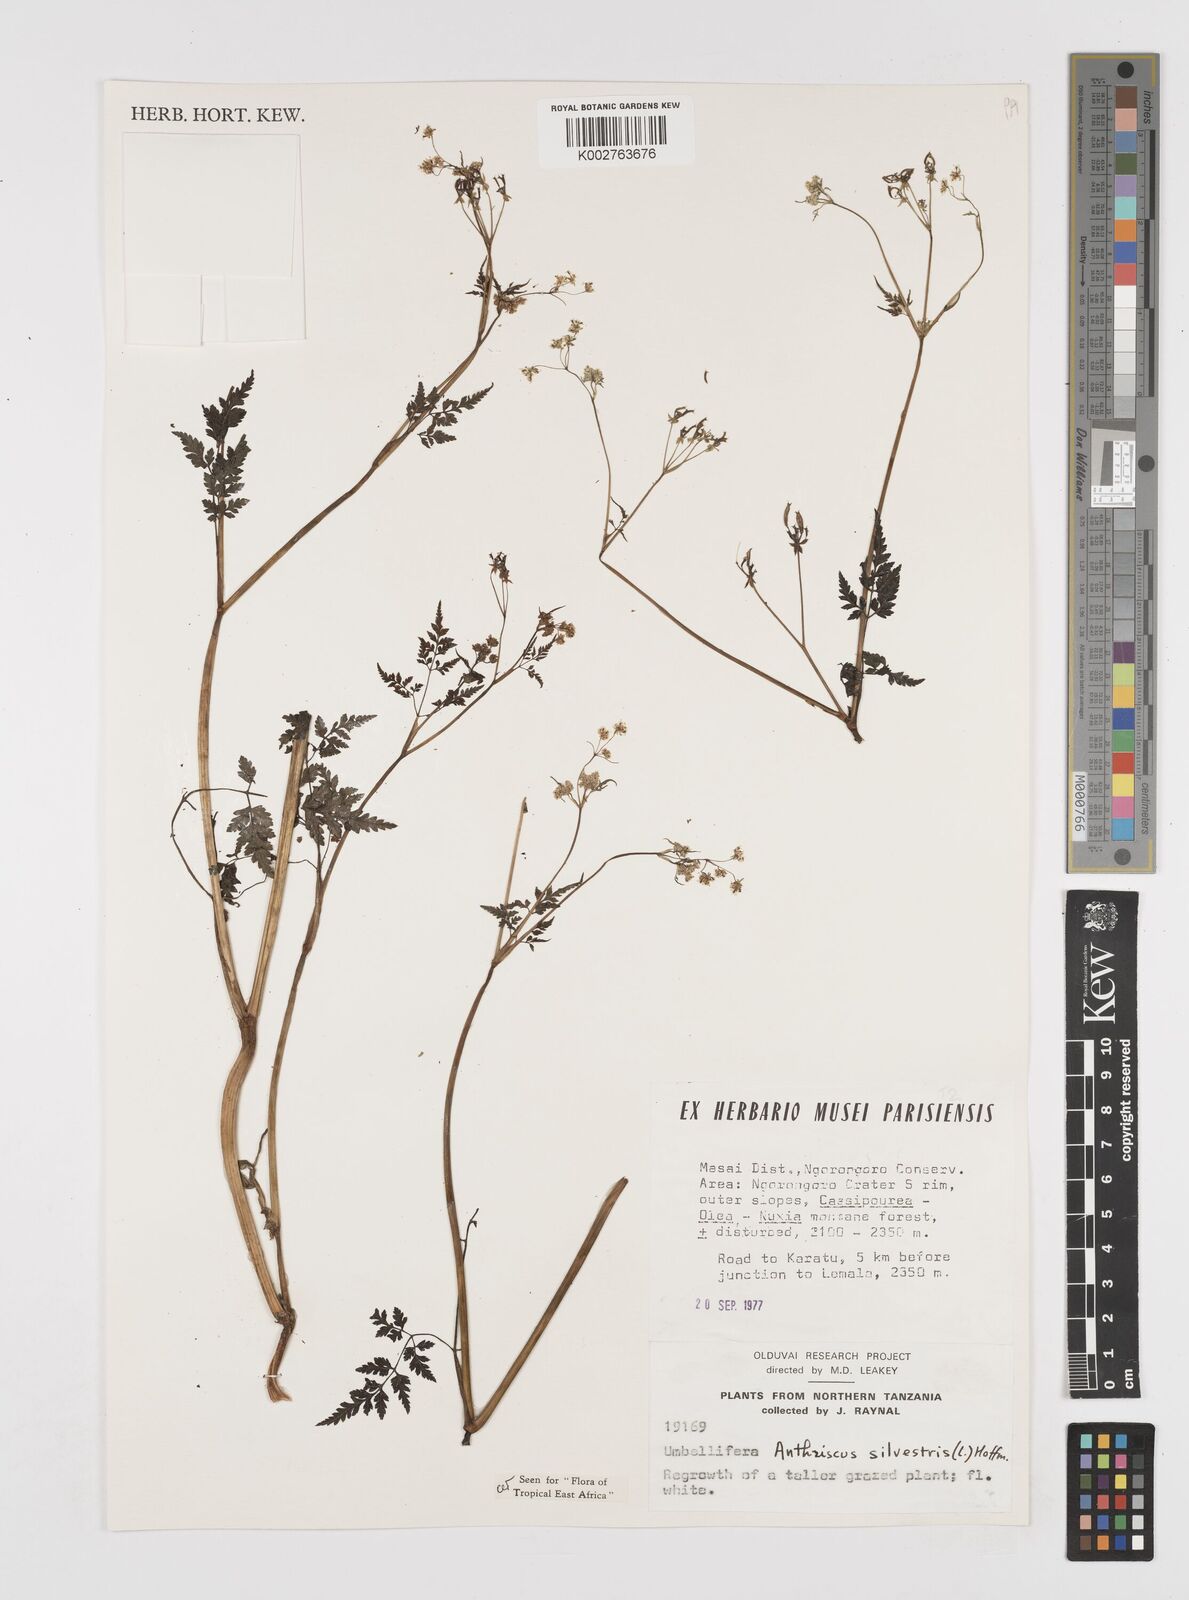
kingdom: Plantae
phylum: Tracheophyta
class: Magnoliopsida
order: Apiales
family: Apiaceae
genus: Anthriscus
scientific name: Anthriscus sylvestris
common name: Cow parsley
